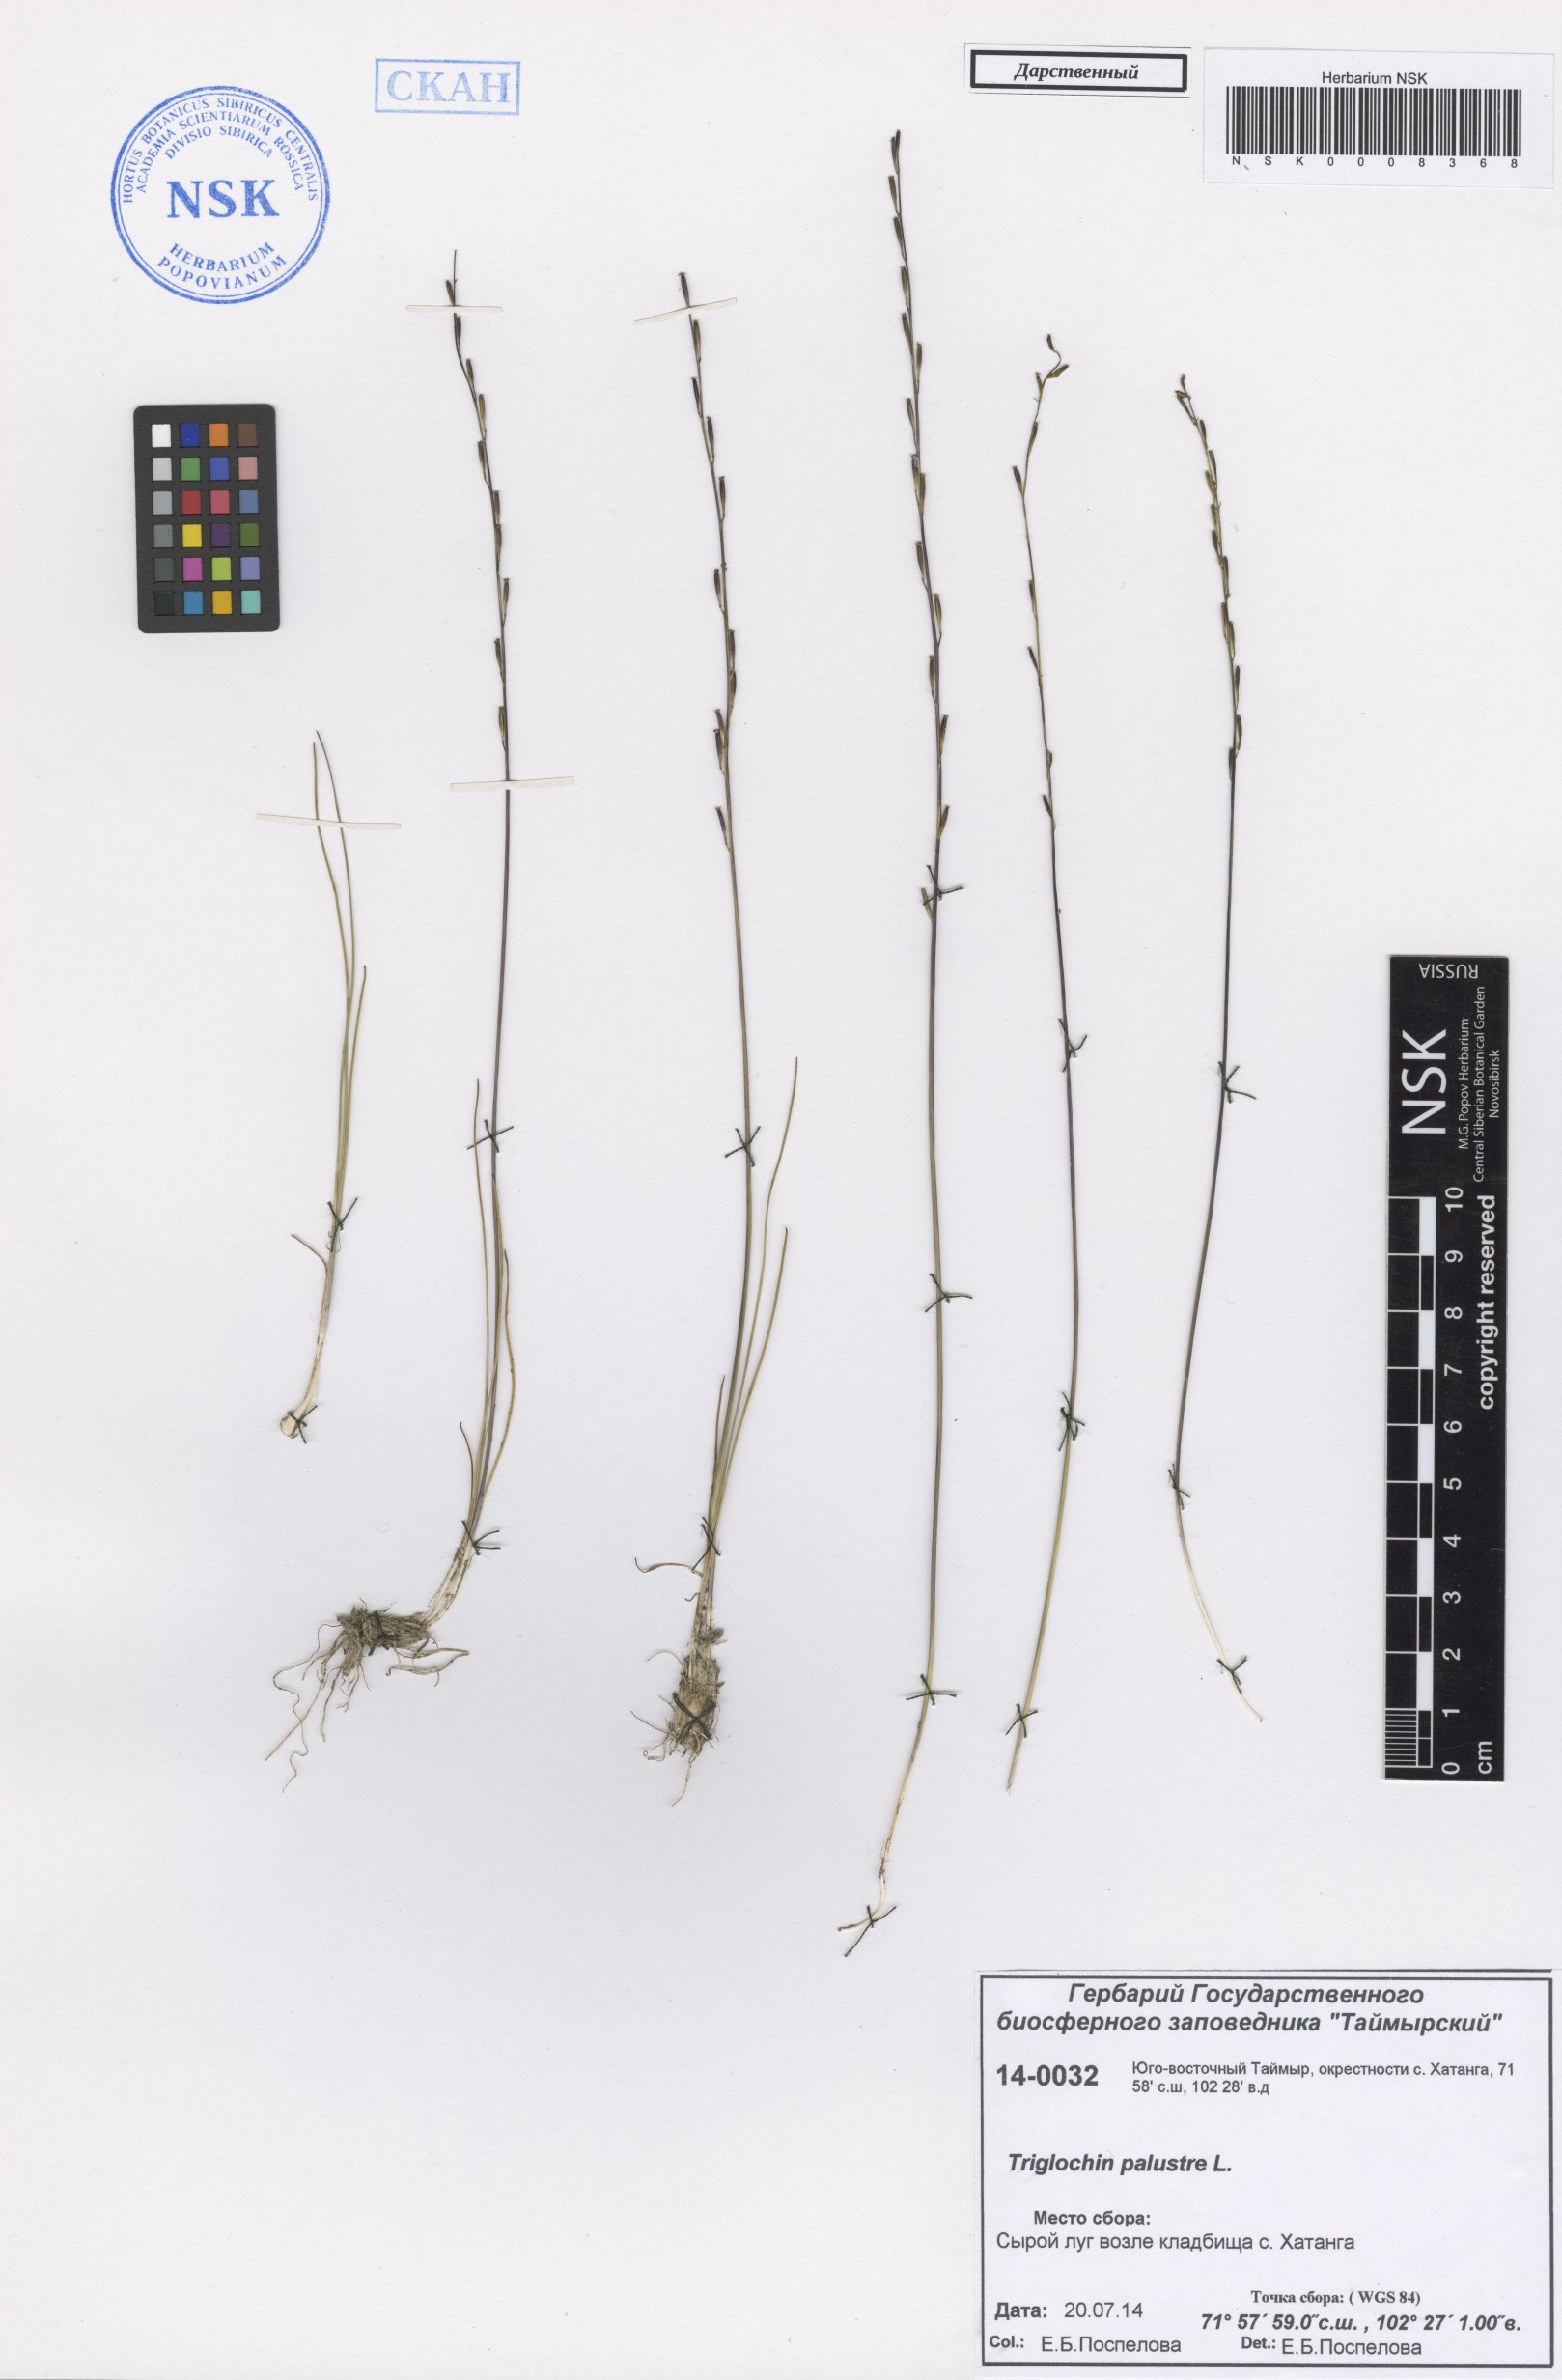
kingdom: Plantae
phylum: Tracheophyta
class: Liliopsida
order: Alismatales
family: Juncaginaceae
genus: Triglochin
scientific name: Triglochin palustris
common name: Marsh arrowgrass
